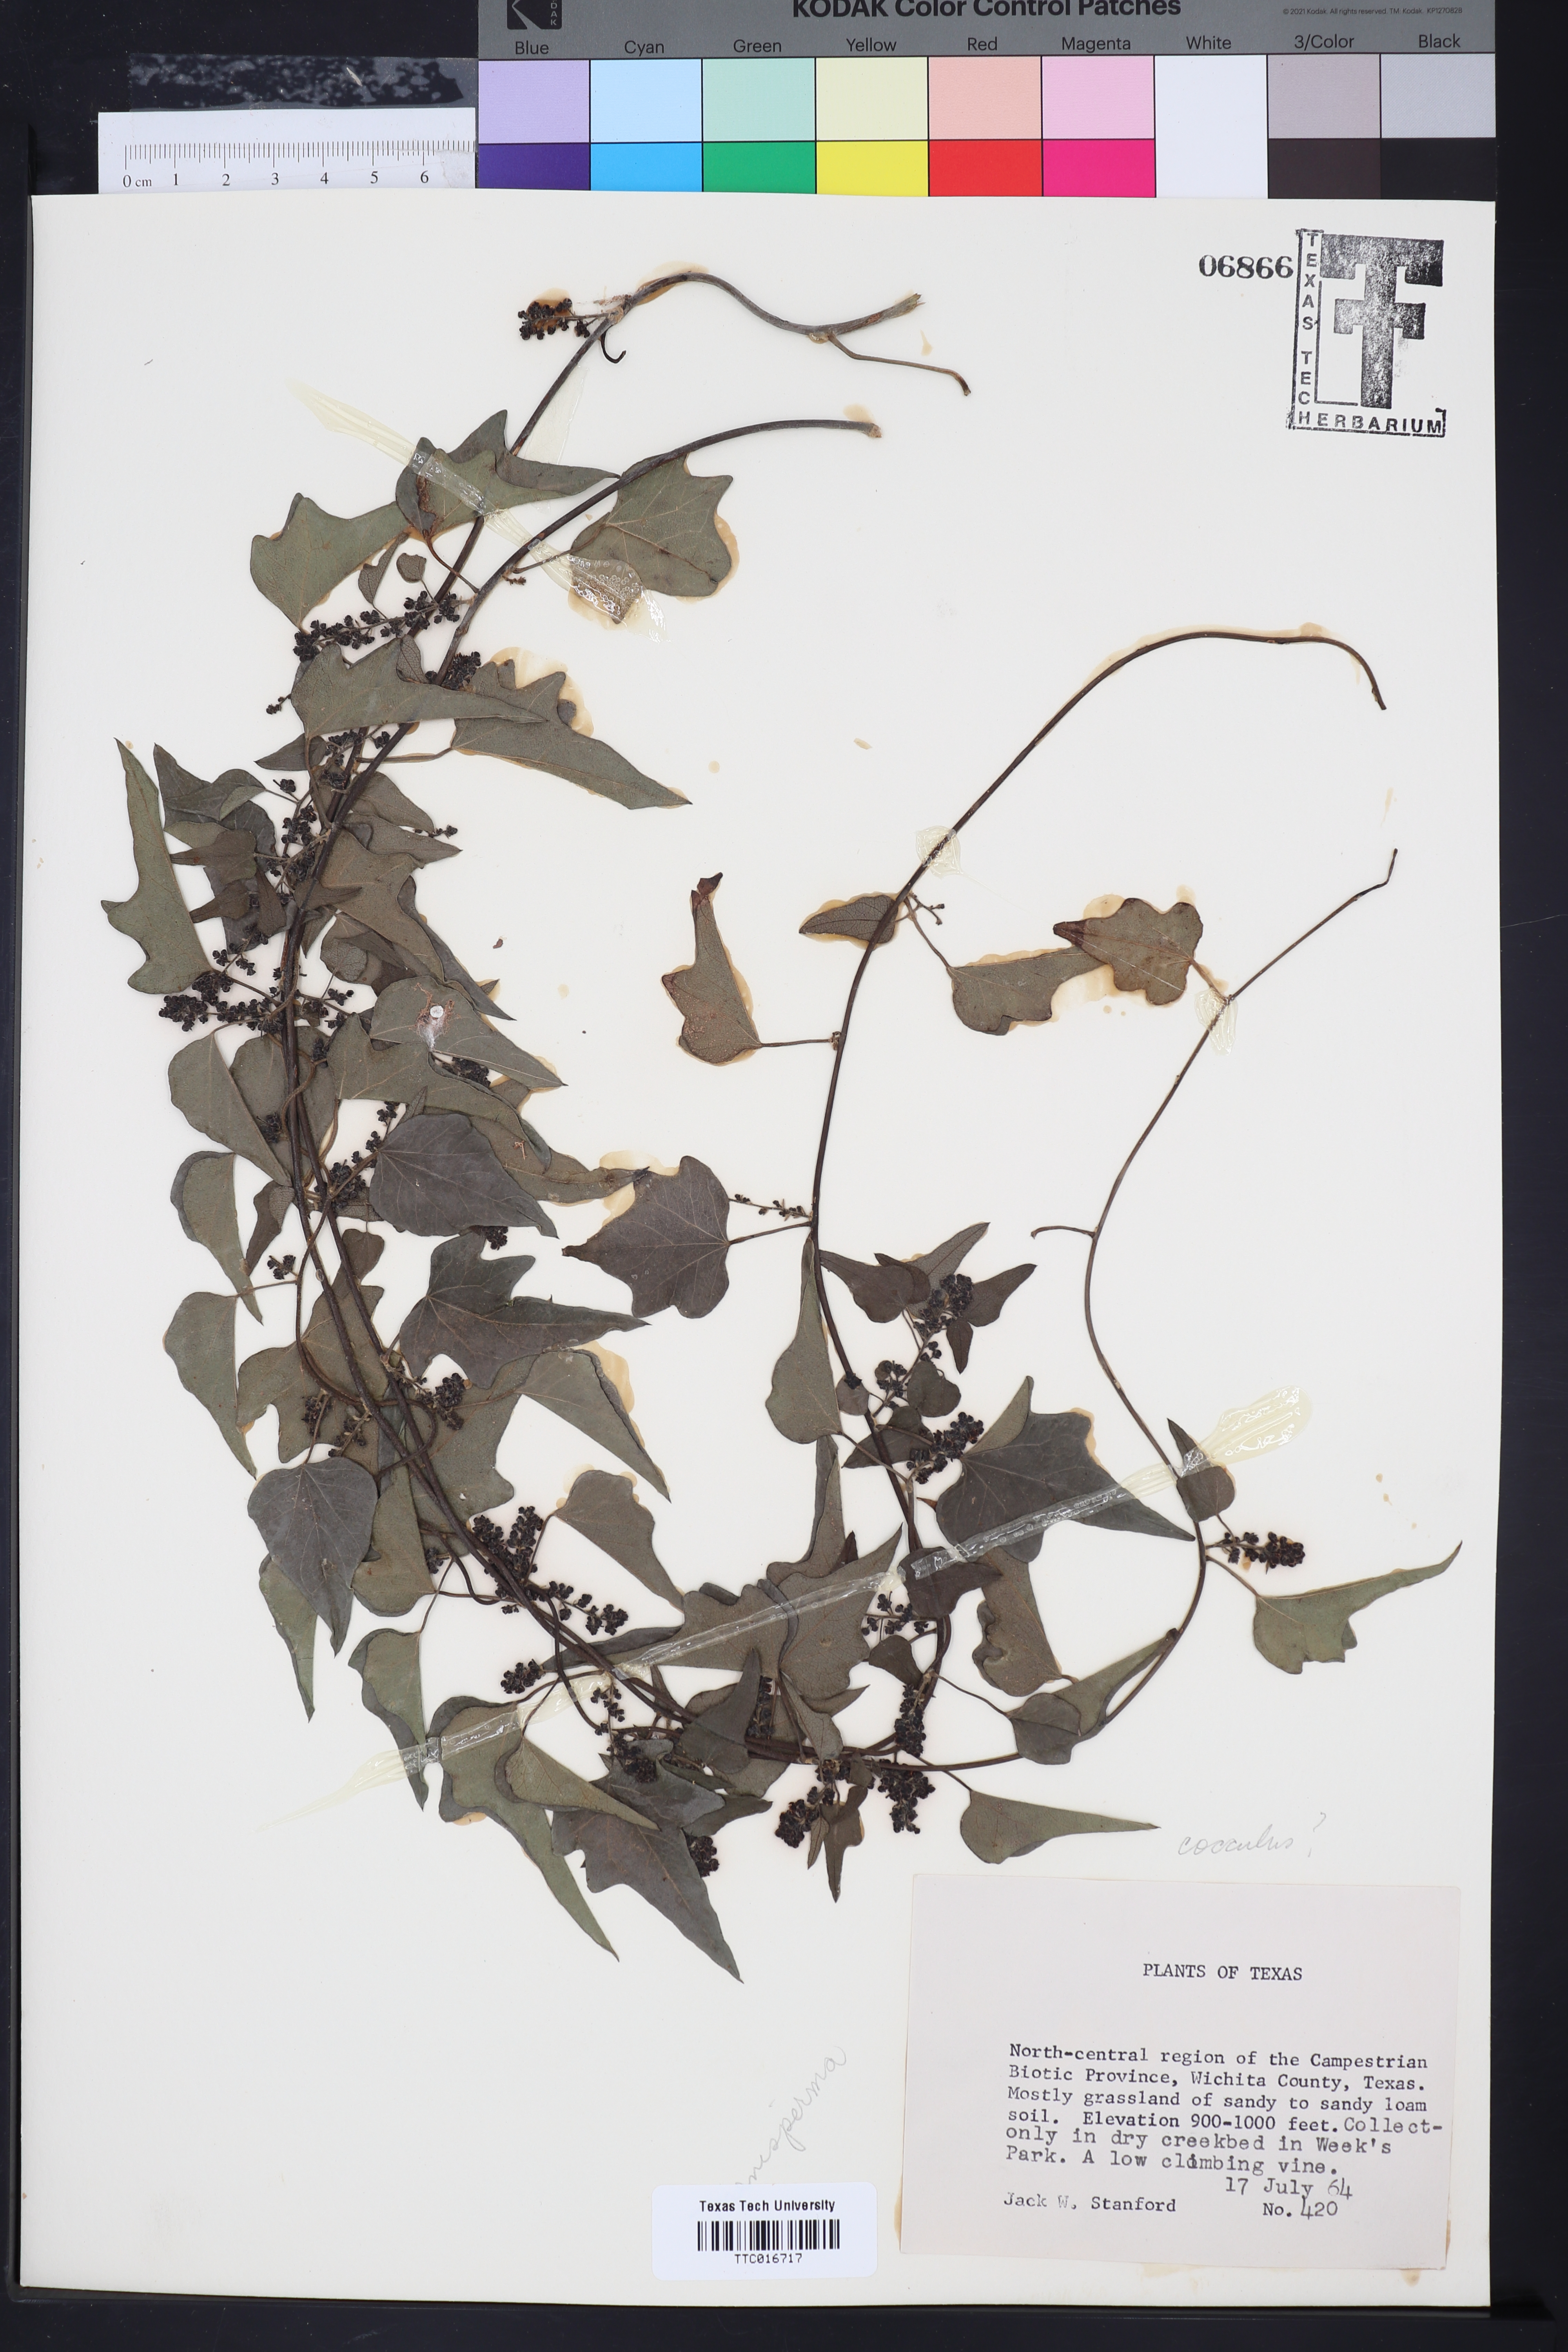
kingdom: Plantae
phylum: Tracheophyta
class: Magnoliopsida
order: Ranunculales
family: Menispermaceae
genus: Cocculus
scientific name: Cocculus
